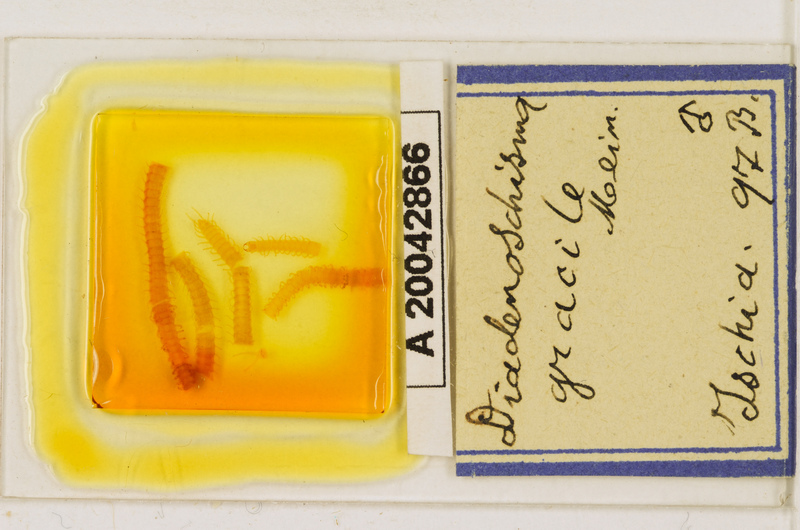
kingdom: Animalia
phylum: Arthropoda
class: Chilopoda
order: Geophilomorpha
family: Himantariidae
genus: Stigmatogaster
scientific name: Stigmatogaster
